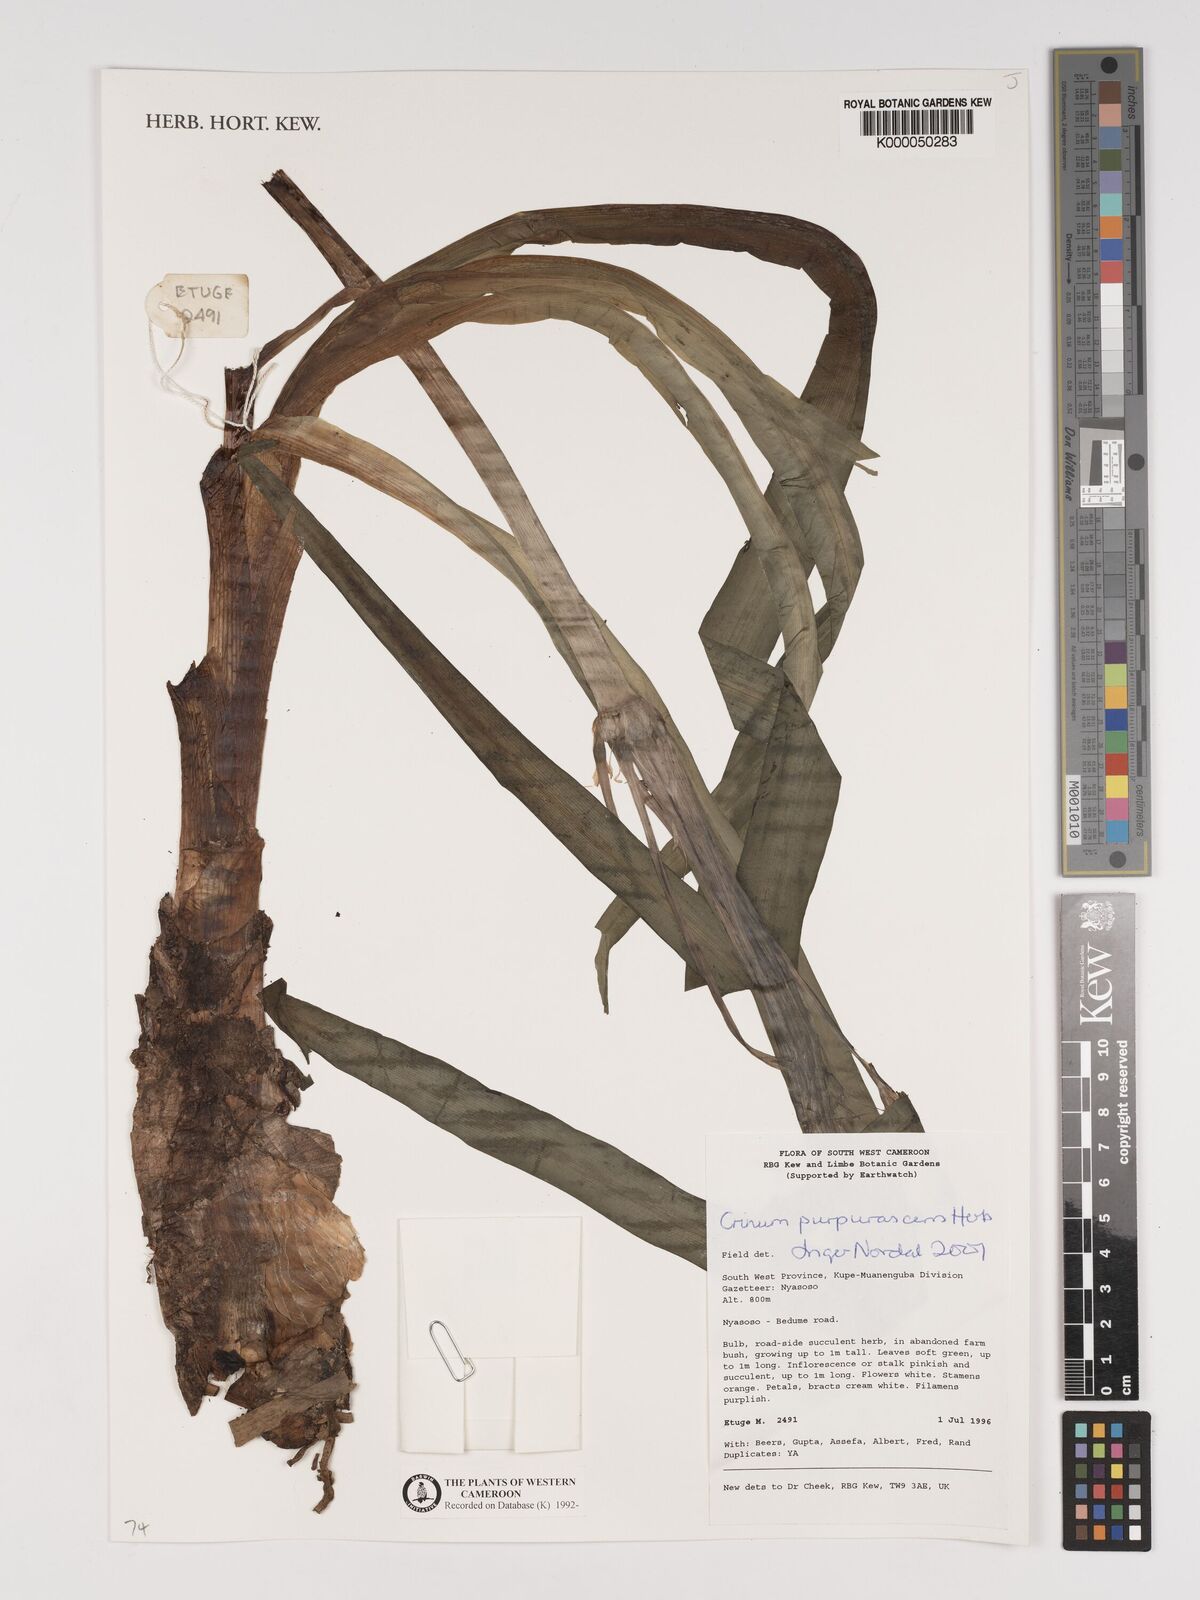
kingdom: Plantae
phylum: Tracheophyta
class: Liliopsida
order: Asparagales
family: Amaryllidaceae
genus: Crinum
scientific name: Crinum purpurascens
